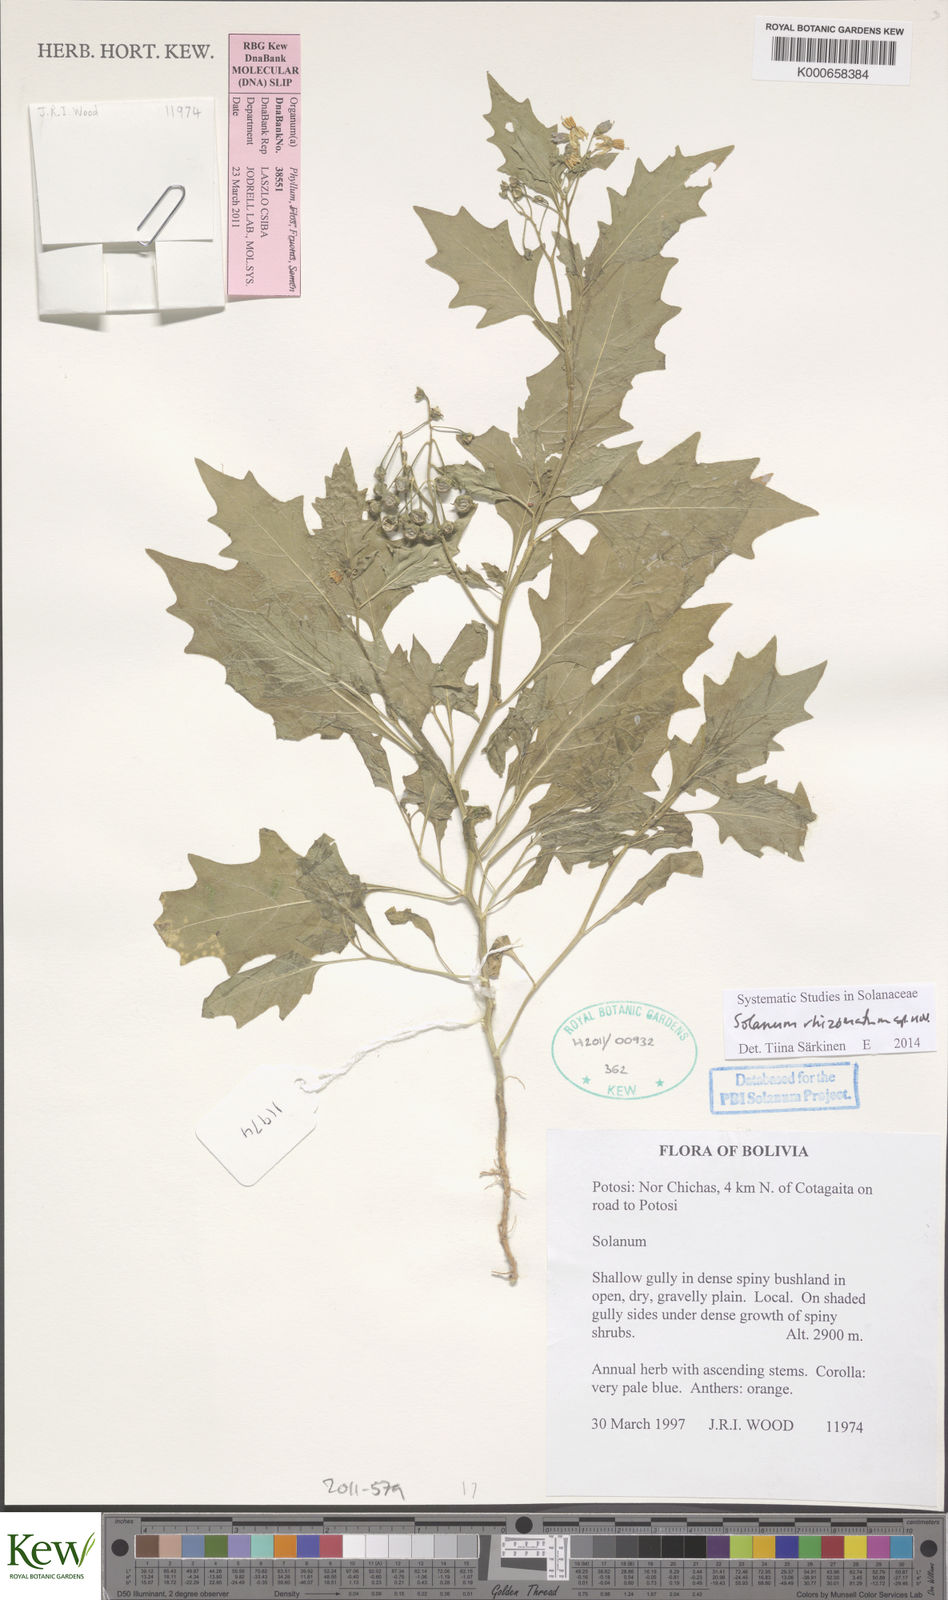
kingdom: Plantae
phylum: Tracheophyta
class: Magnoliopsida
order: Solanales
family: Solanaceae
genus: Solanum
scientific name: Solanum
